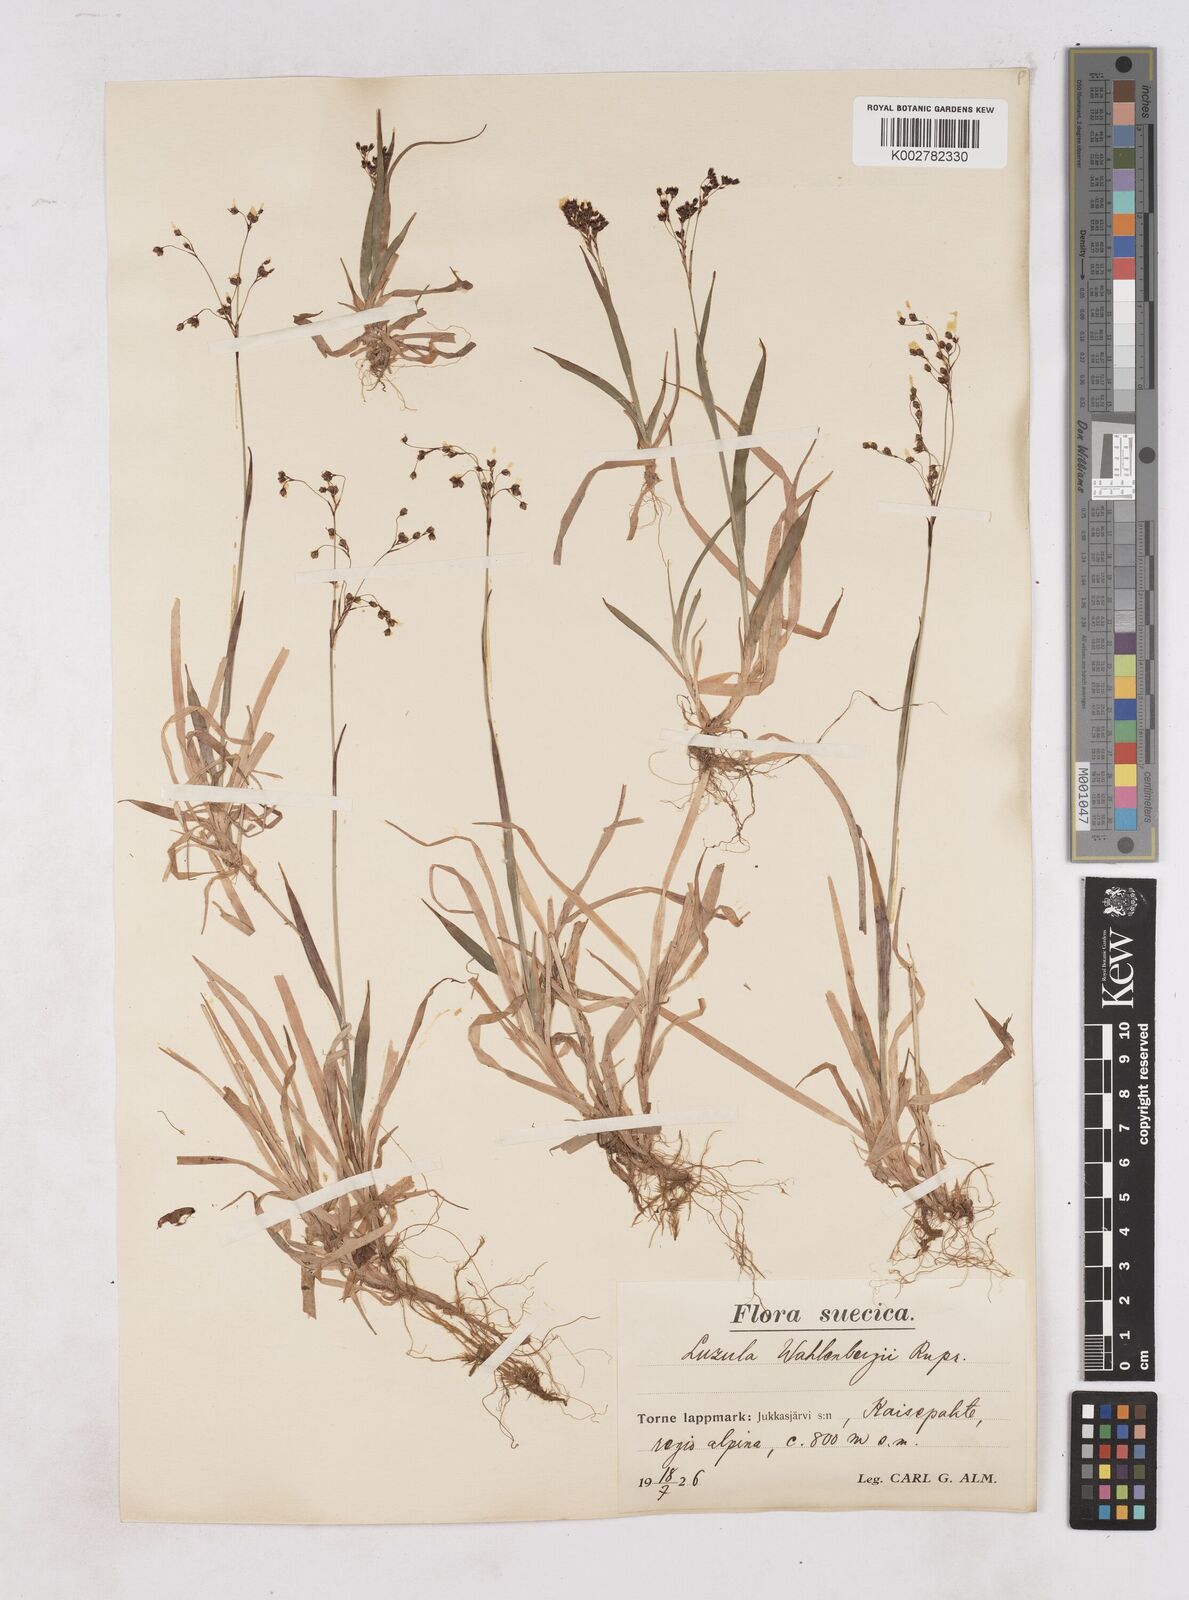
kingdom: Plantae
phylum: Tracheophyta
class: Liliopsida
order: Poales
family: Juncaceae
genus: Luzula
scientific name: Luzula alpinopilosa
